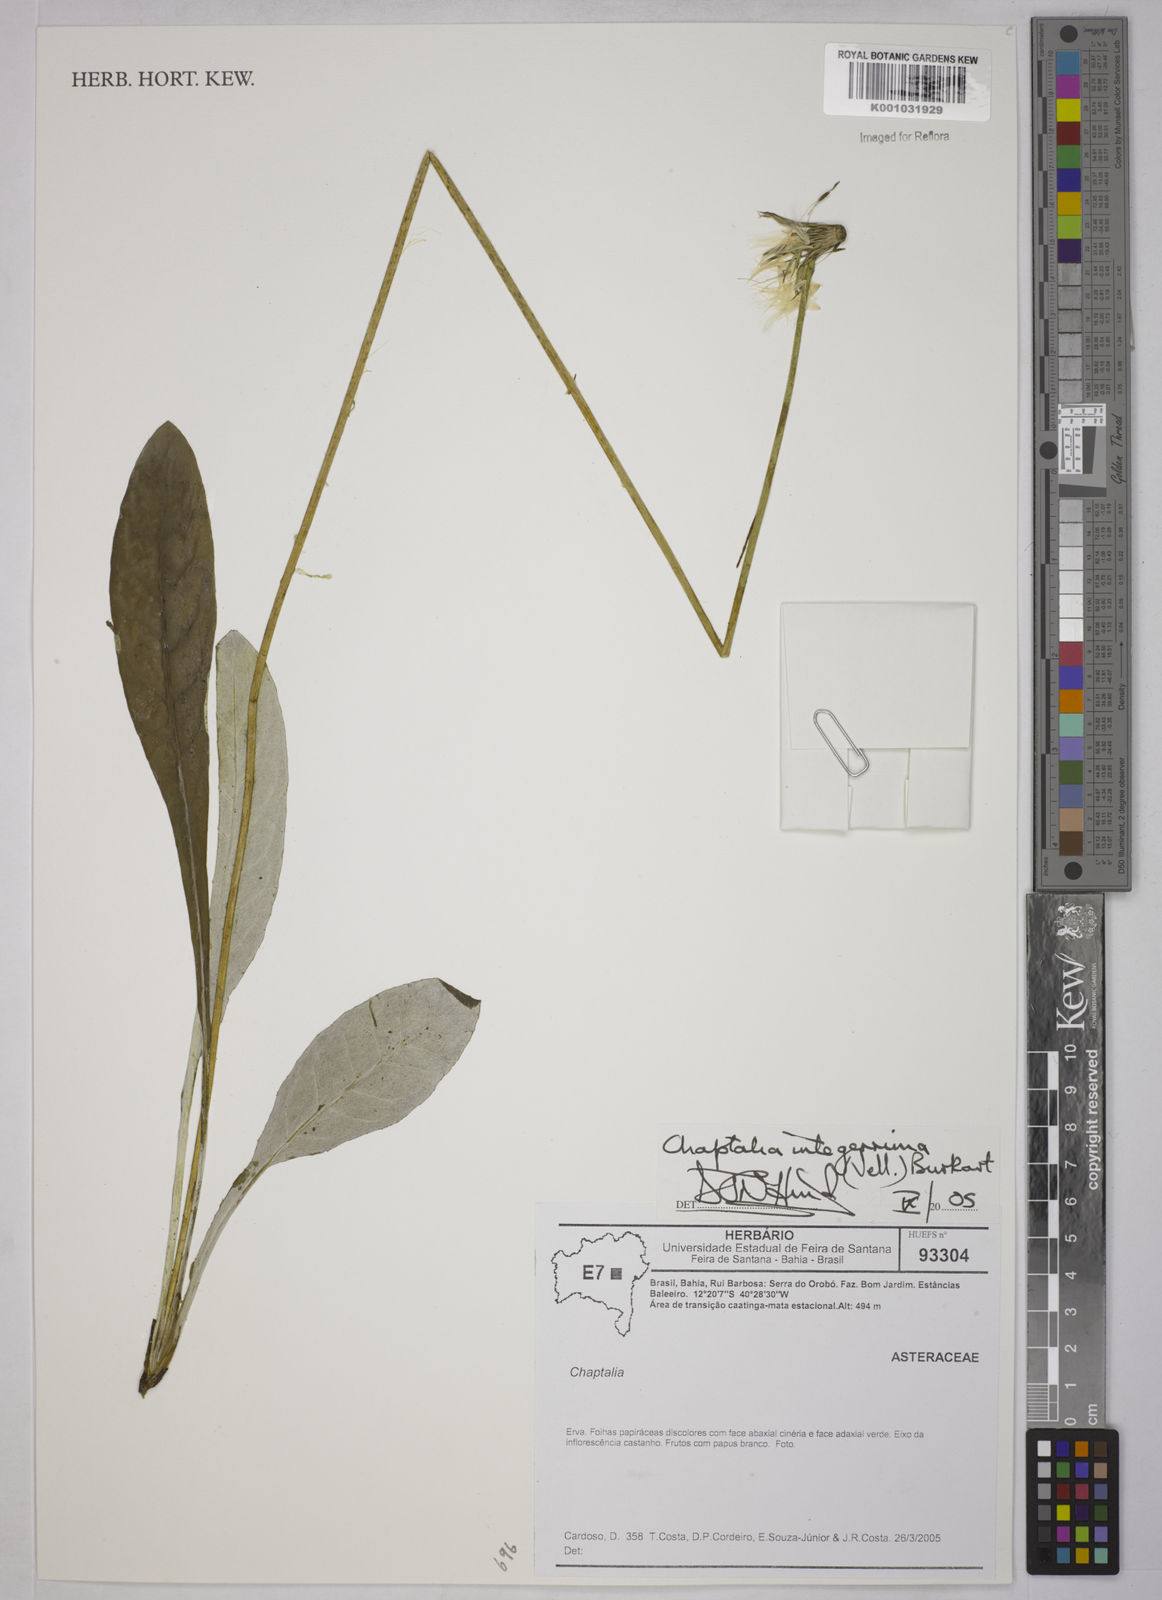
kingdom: Plantae
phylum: Tracheophyta
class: Magnoliopsida
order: Asterales
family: Asteraceae
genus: Chaptalia
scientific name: Chaptalia integerrima
